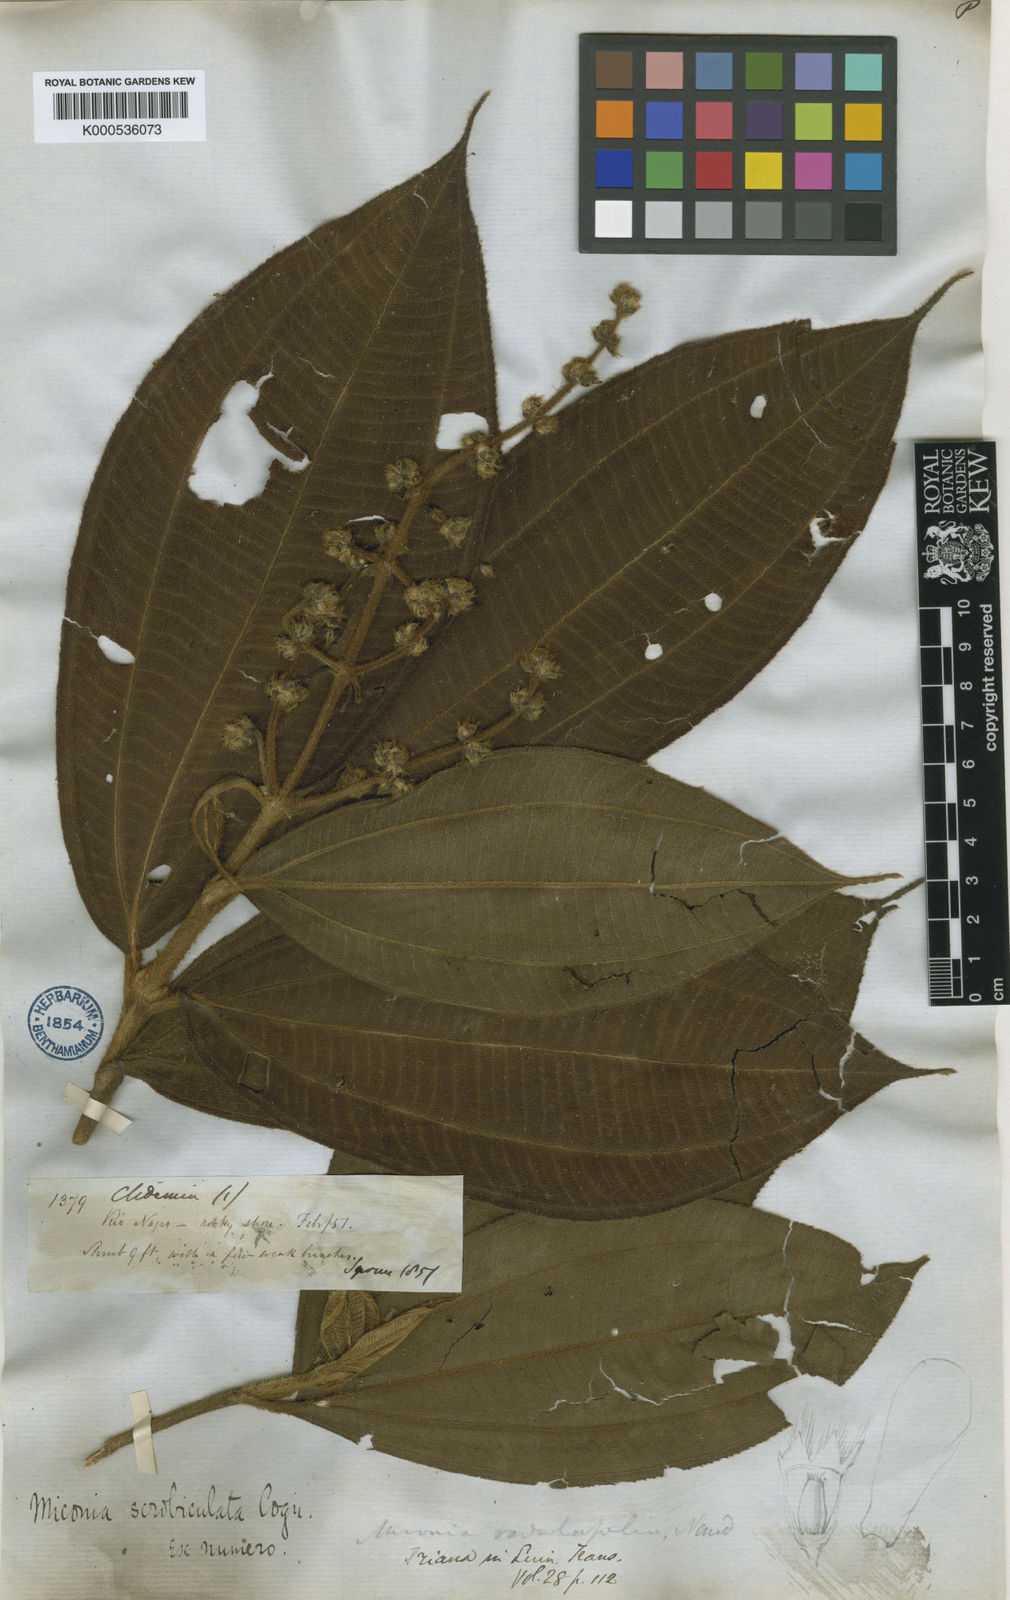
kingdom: Plantae
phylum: Tracheophyta
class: Magnoliopsida
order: Myrtales
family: Melastomataceae
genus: Miconia
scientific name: Miconia radulifolia
